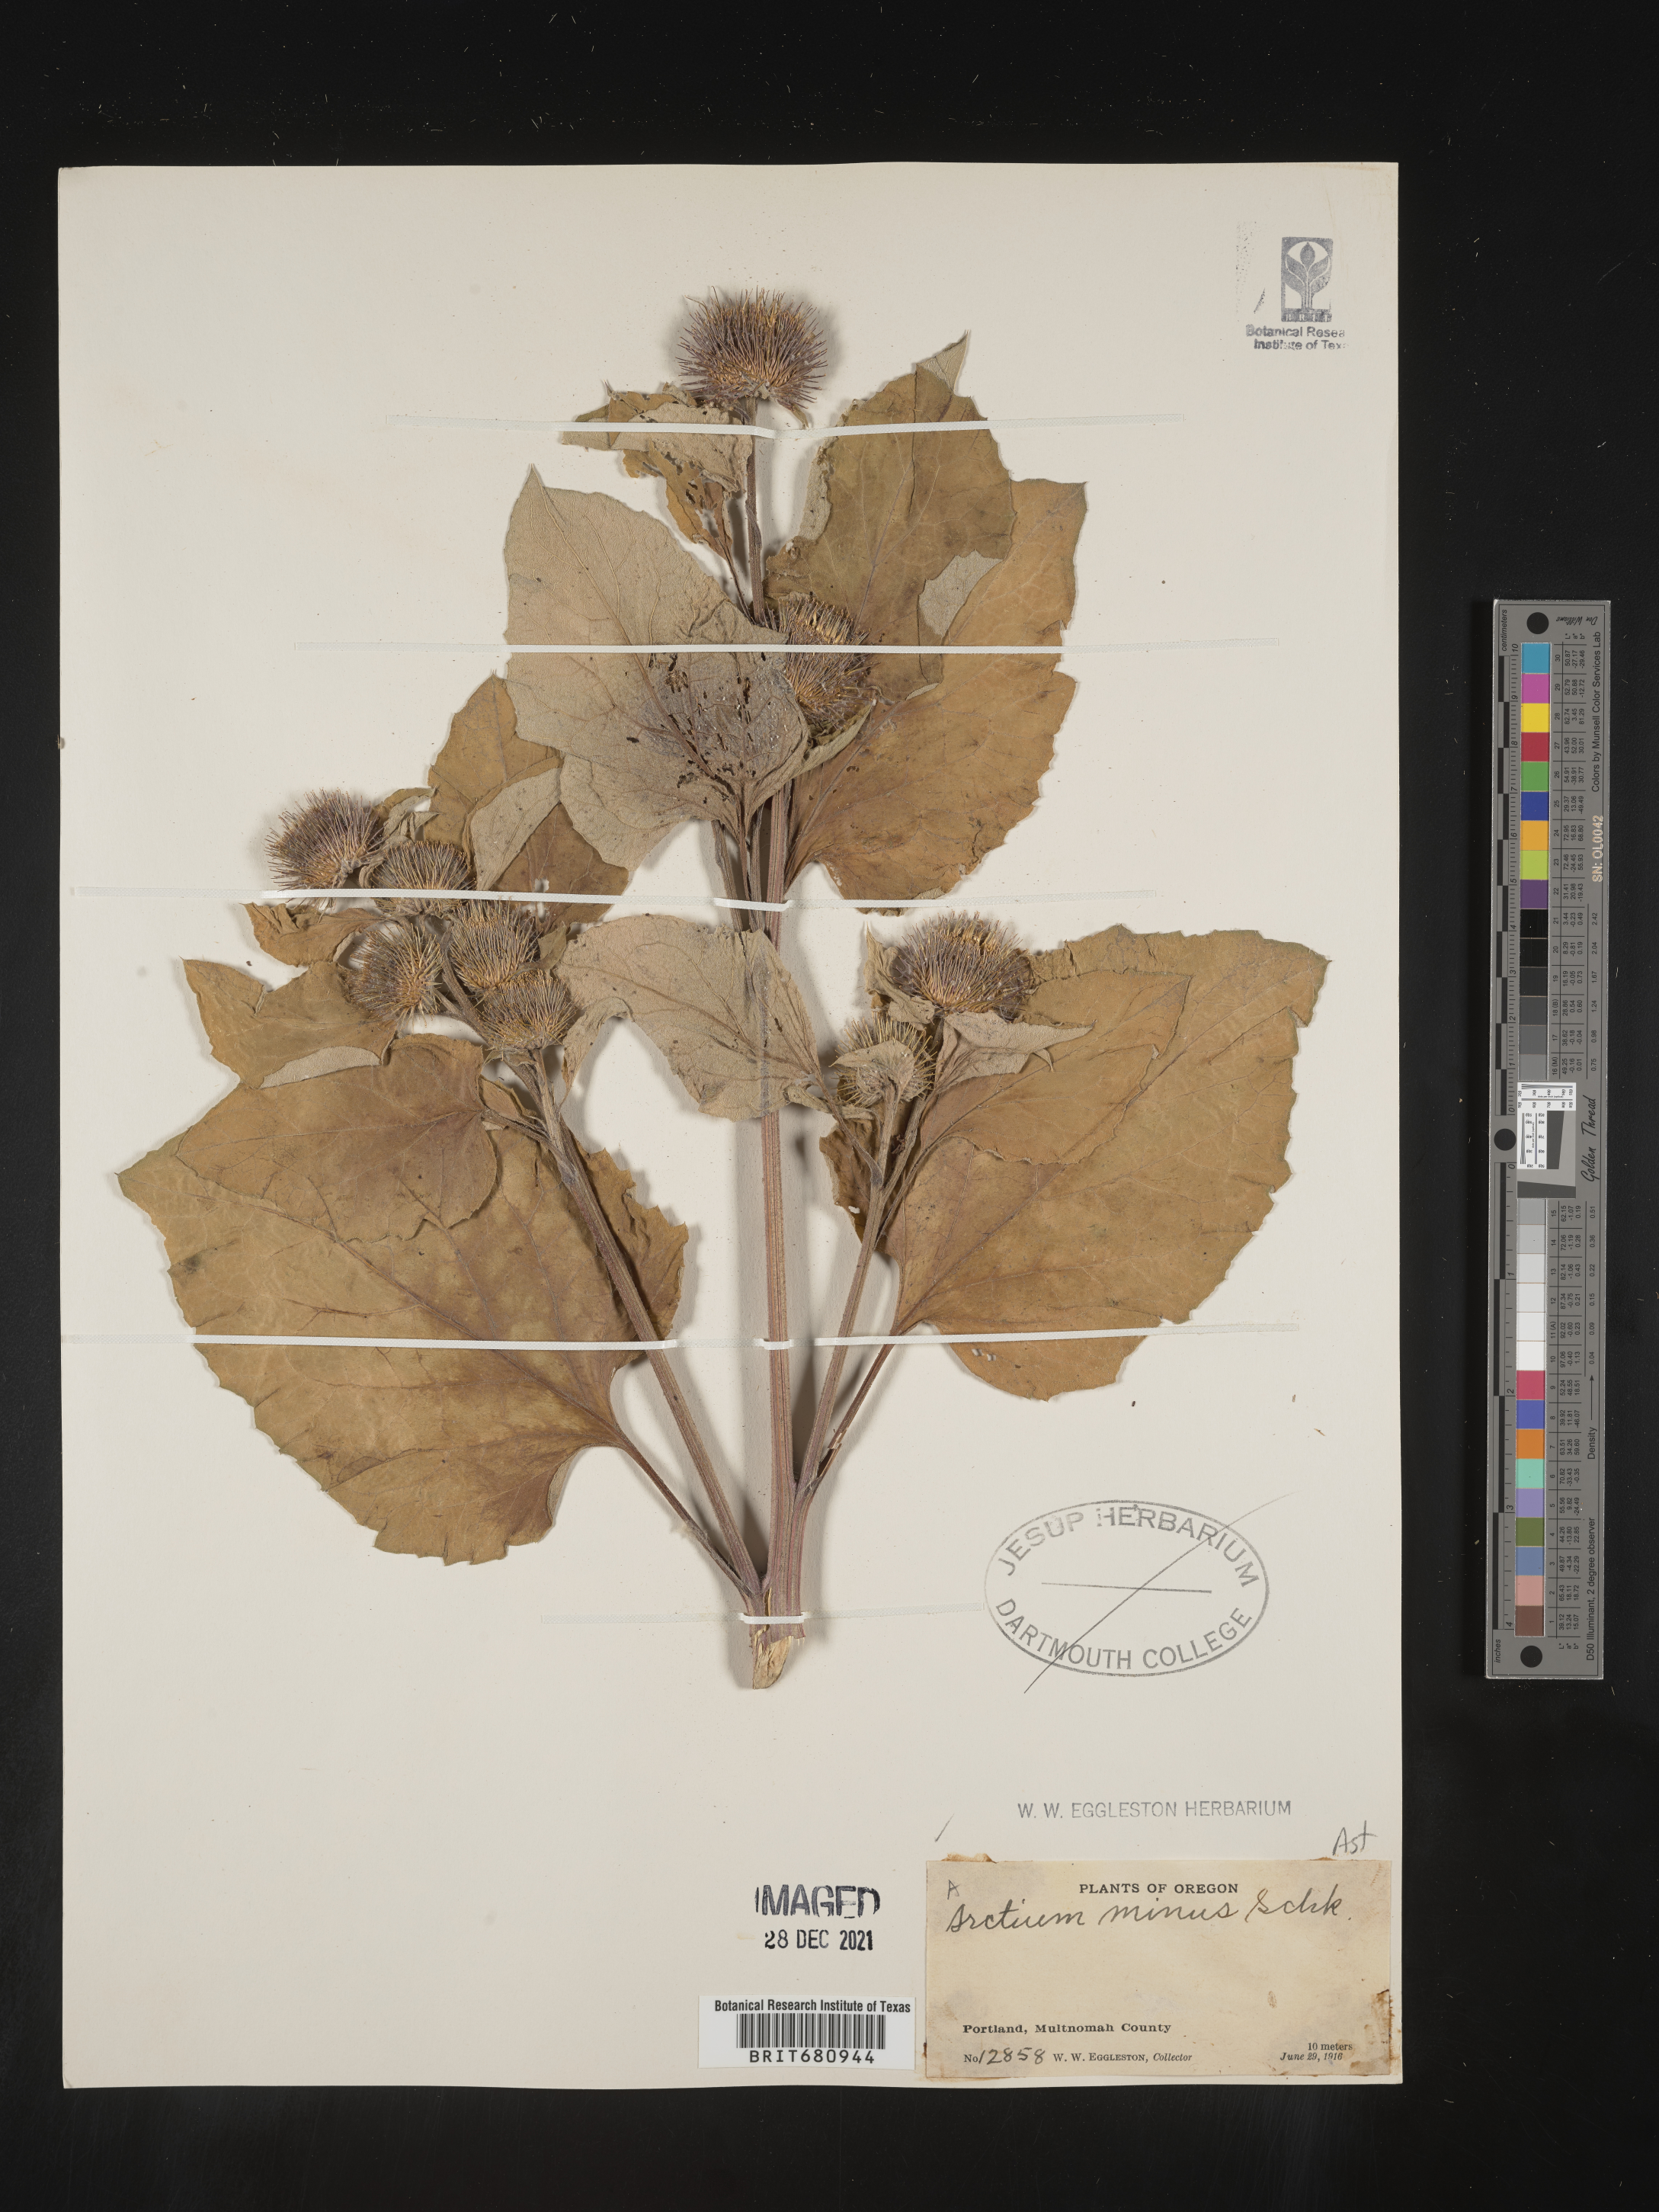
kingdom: Plantae
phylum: Tracheophyta
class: Magnoliopsida
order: Asterales
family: Asteraceae
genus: Arctium
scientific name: Arctium minus
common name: Lesser burdock
